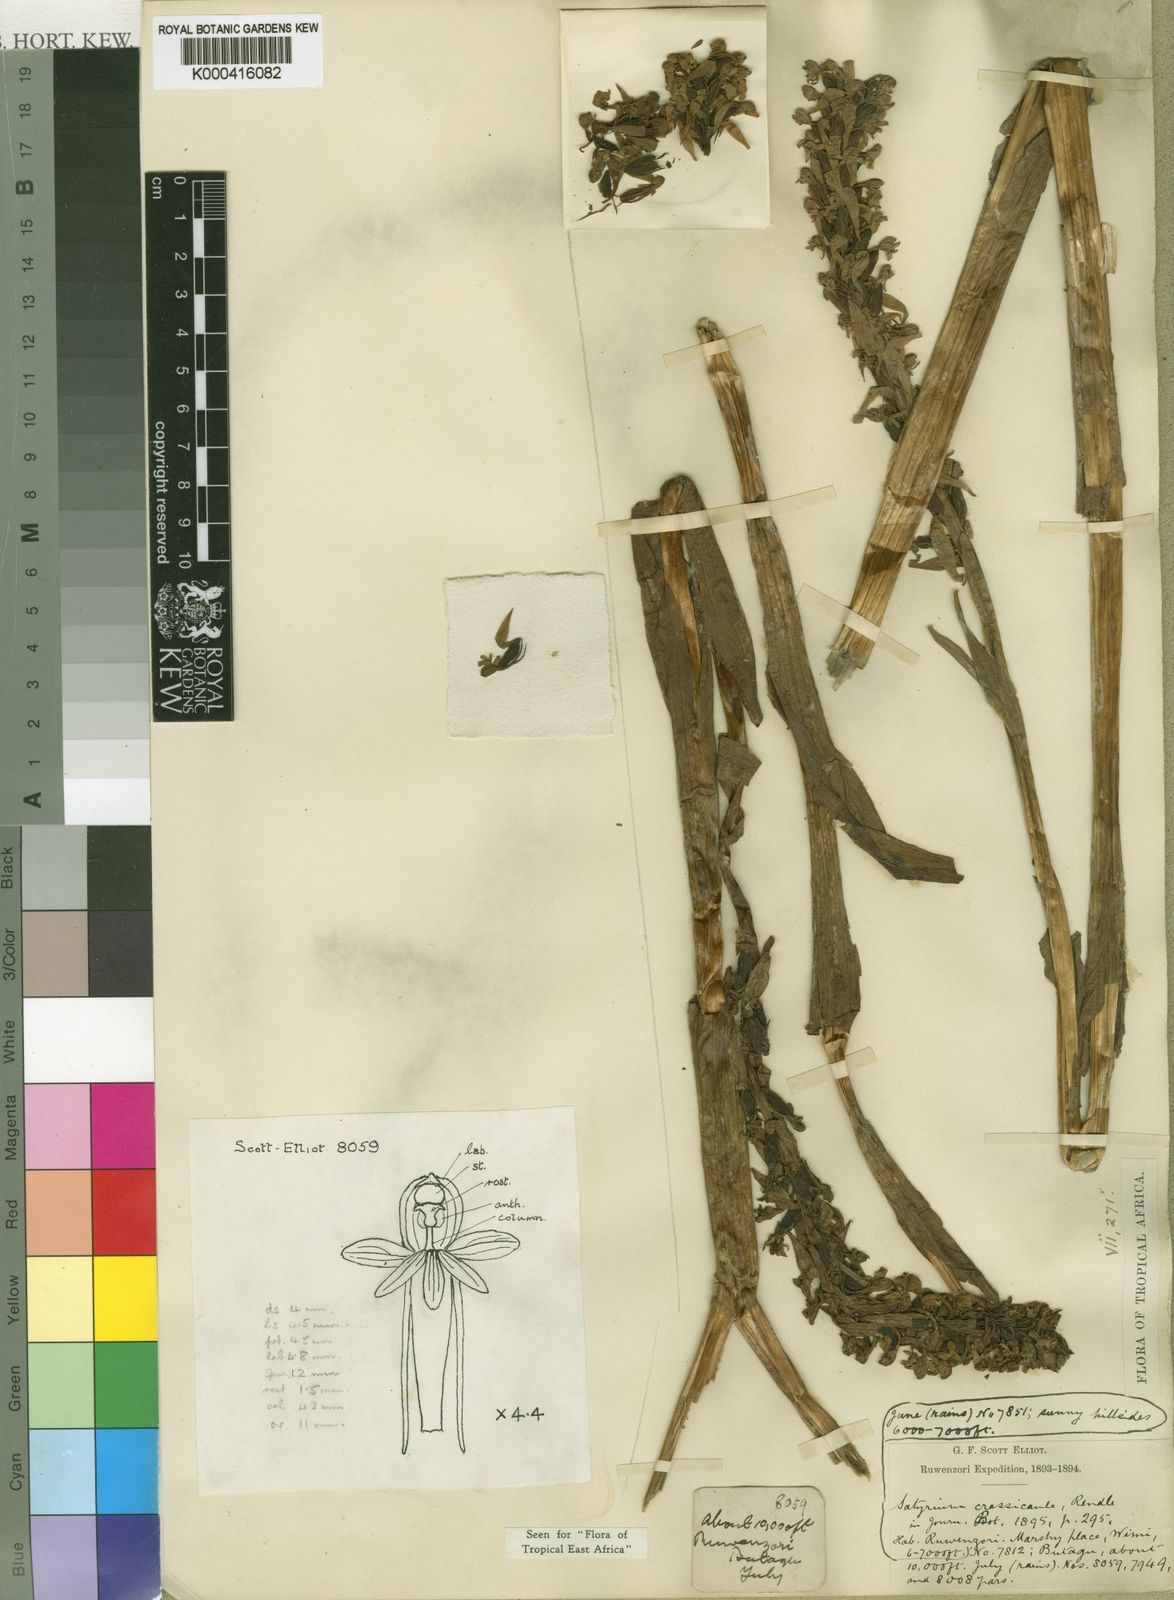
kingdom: Plantae
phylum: Tracheophyta
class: Liliopsida
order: Asparagales
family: Orchidaceae
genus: Satyrium
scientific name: Satyrium crassicaule
